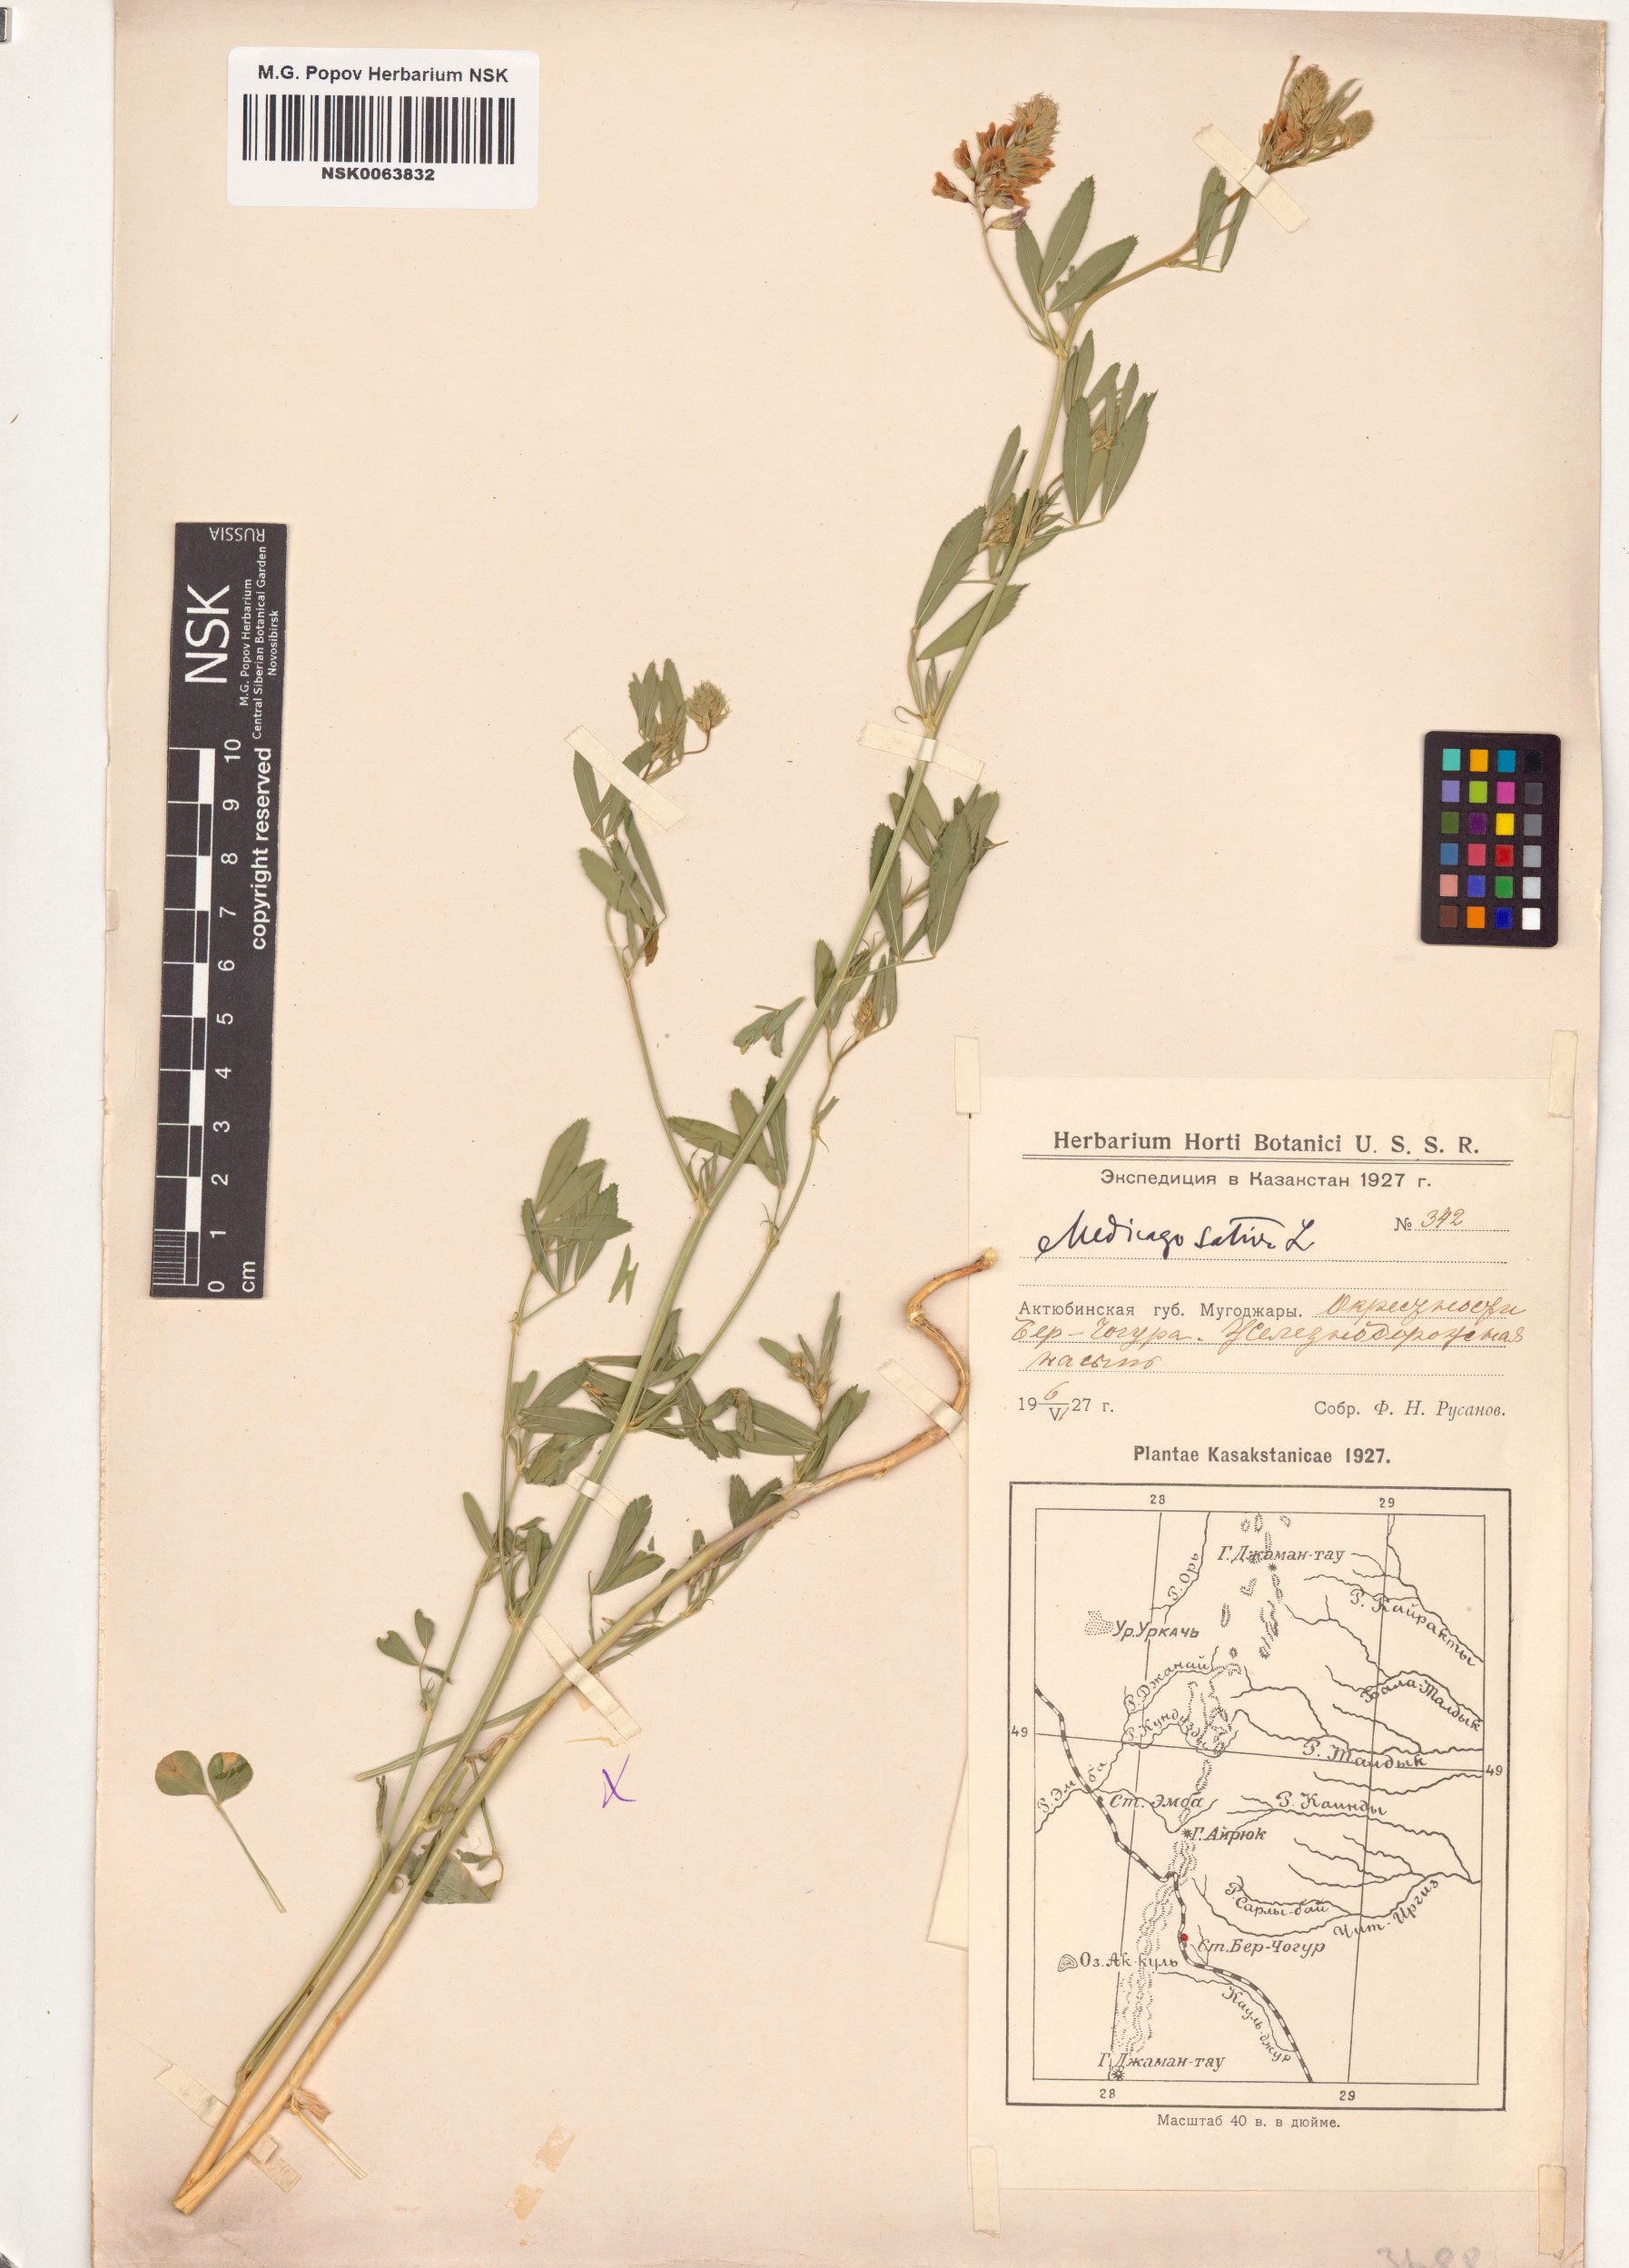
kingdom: Plantae
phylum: Tracheophyta
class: Magnoliopsida
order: Fabales
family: Fabaceae
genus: Medicago
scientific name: Medicago sativa
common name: Alfalfa
